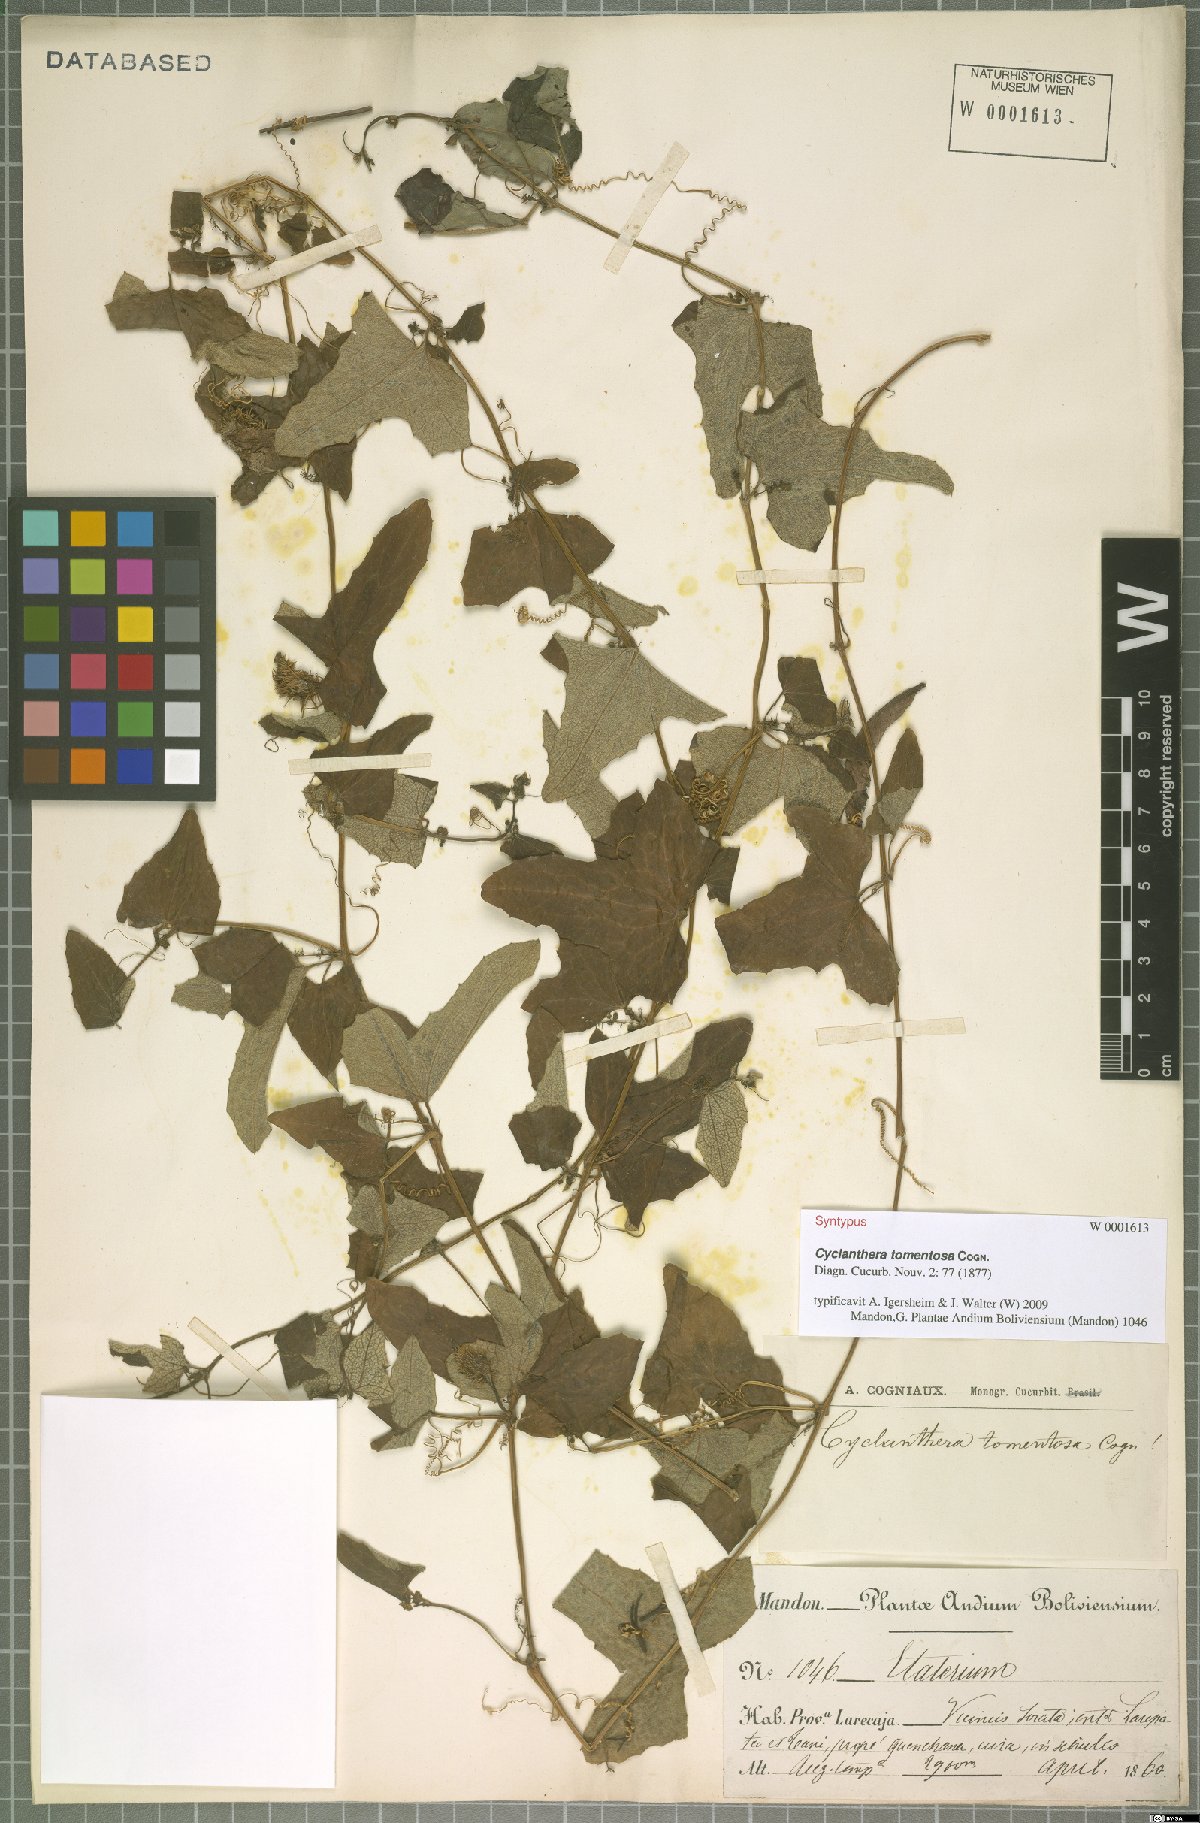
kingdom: Plantae
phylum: Tracheophyta
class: Magnoliopsida
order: Cucurbitales
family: Cucurbitaceae
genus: Cyclanthera
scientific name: Cyclanthera brachybotrys
